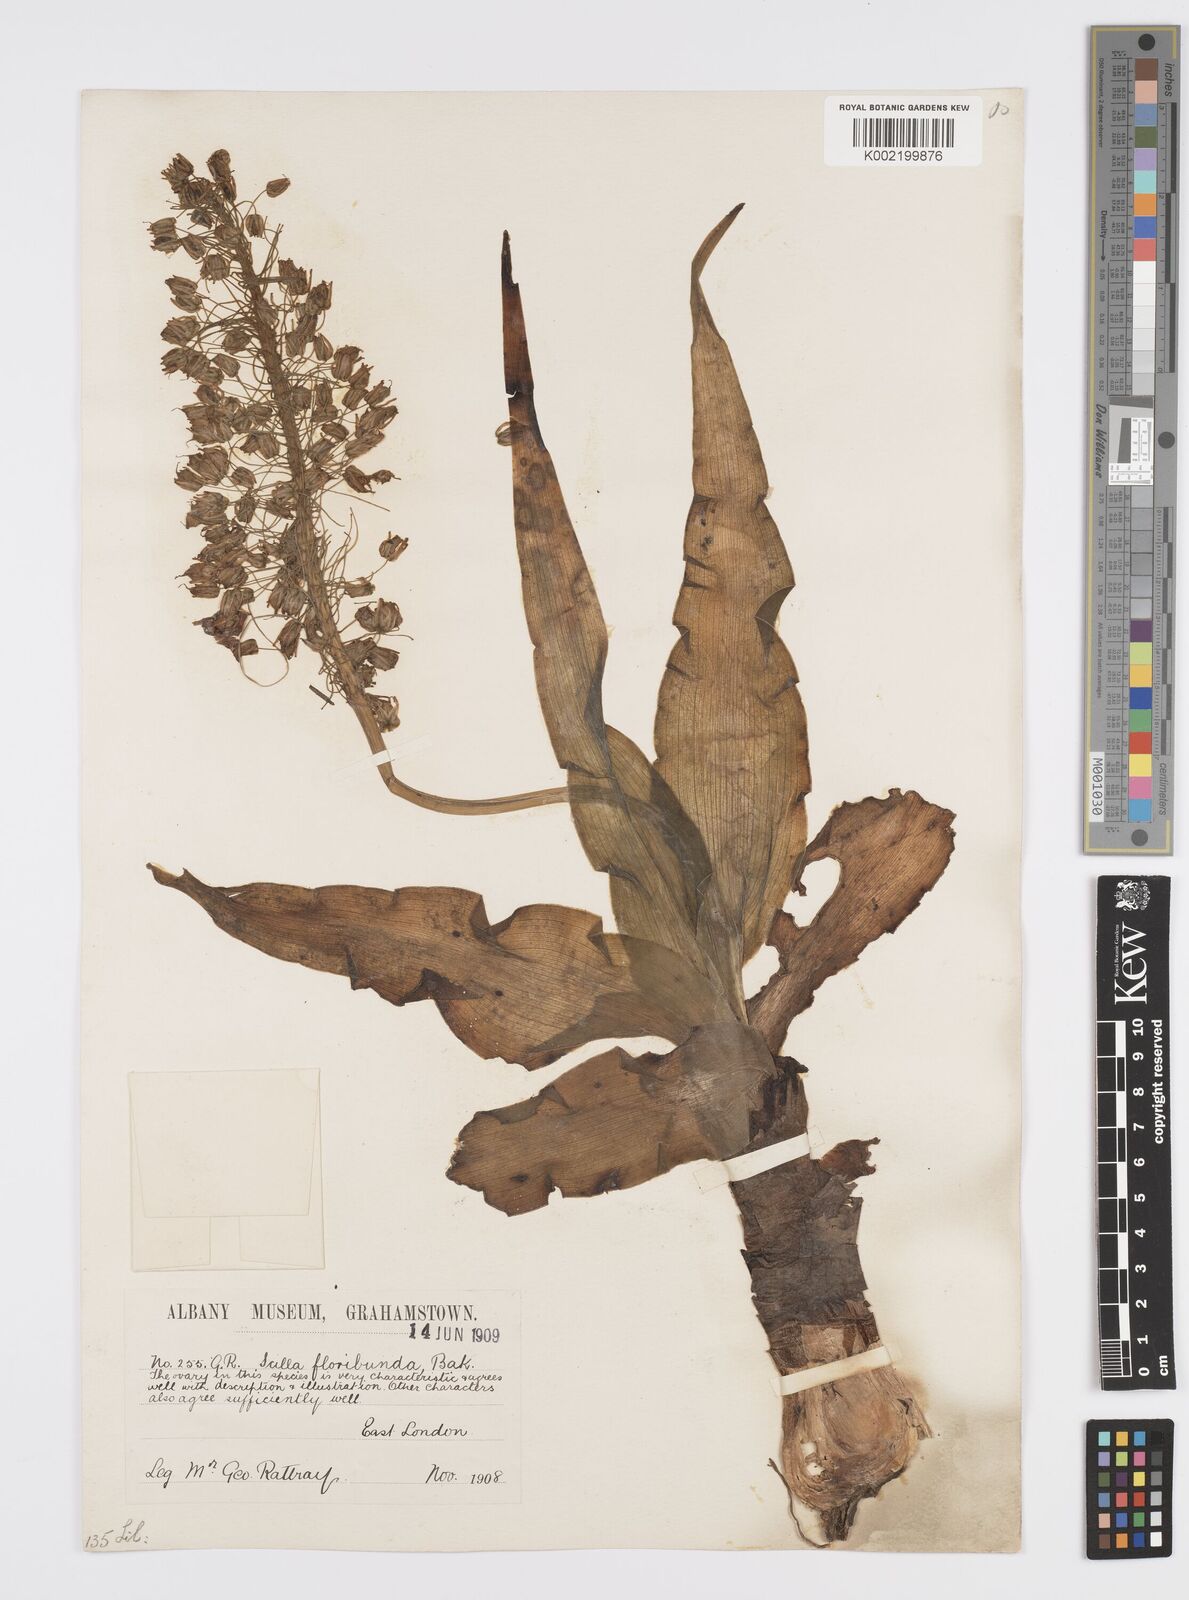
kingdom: Plantae
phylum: Tracheophyta
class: Liliopsida
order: Asparagales
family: Asparagaceae
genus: Ledebouria
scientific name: Ledebouria floribunda
